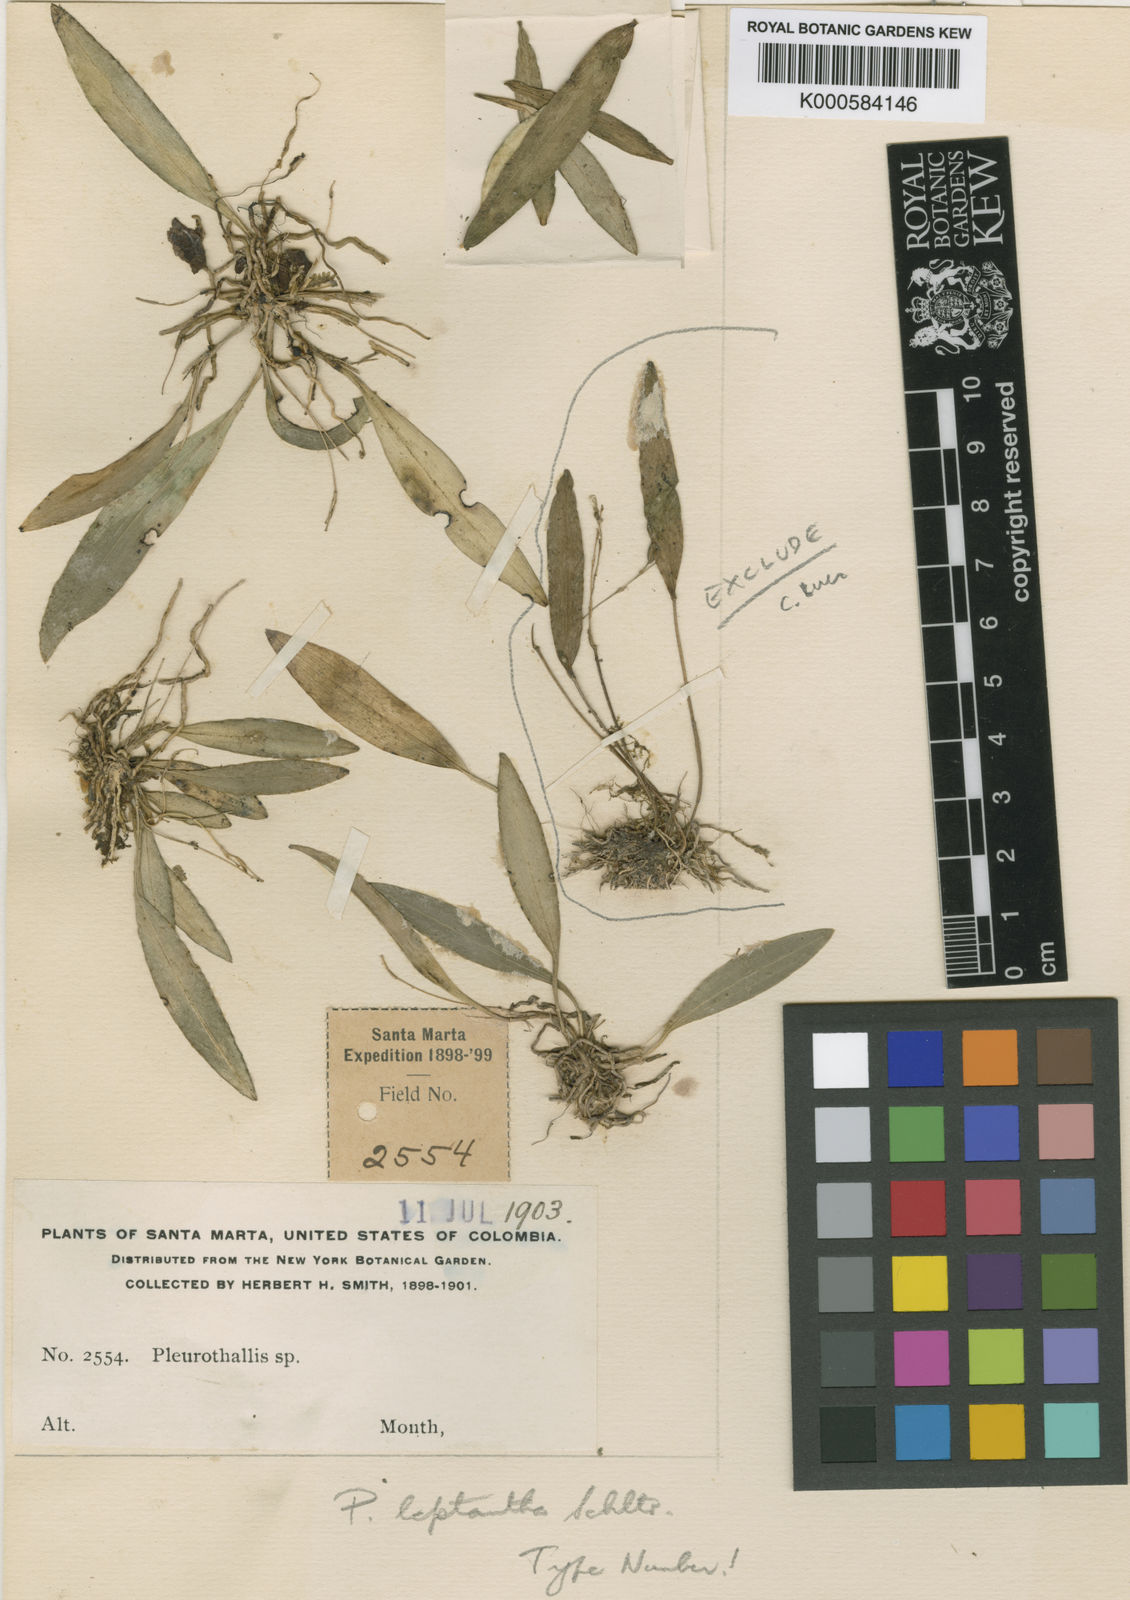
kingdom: Plantae
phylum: Tracheophyta
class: Liliopsida
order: Asparagales
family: Orchidaceae
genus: Specklinia
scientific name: Specklinia leptantha
